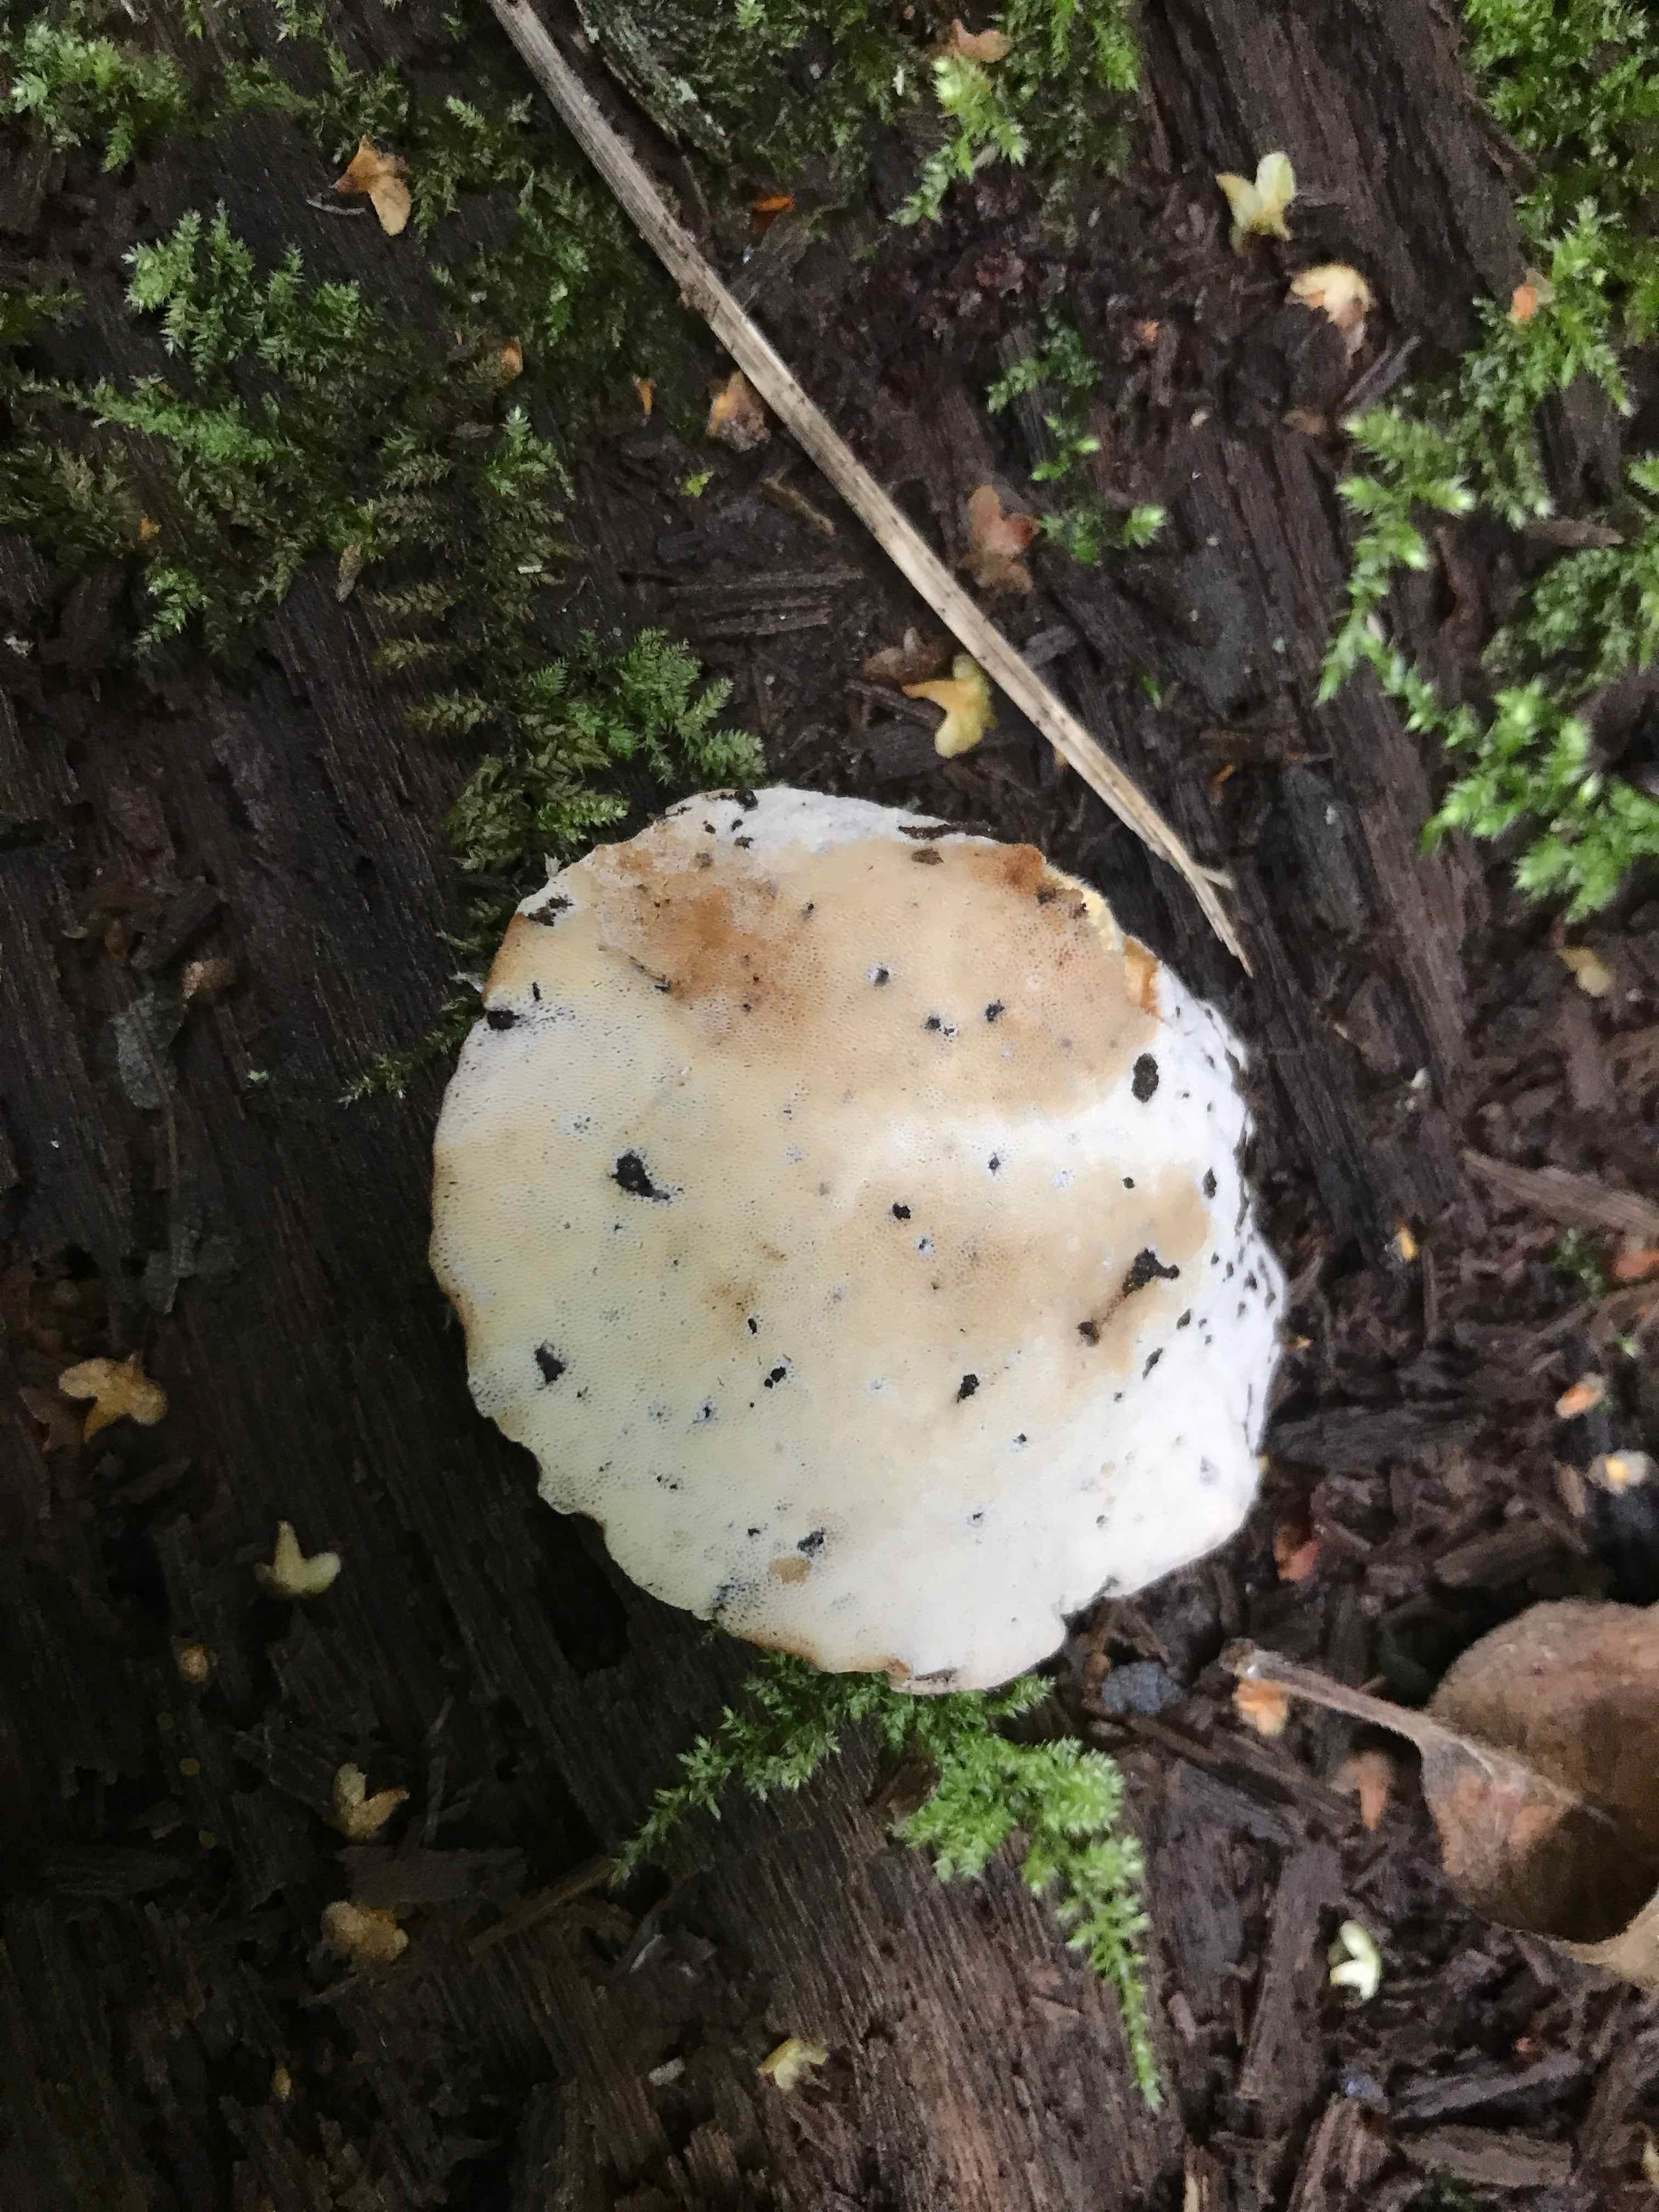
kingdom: Fungi
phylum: Basidiomycota
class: Agaricomycetes
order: Polyporales
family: Polyporaceae
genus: Cerioporus
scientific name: Cerioporus varius
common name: foranderlig stilkporesvamp
